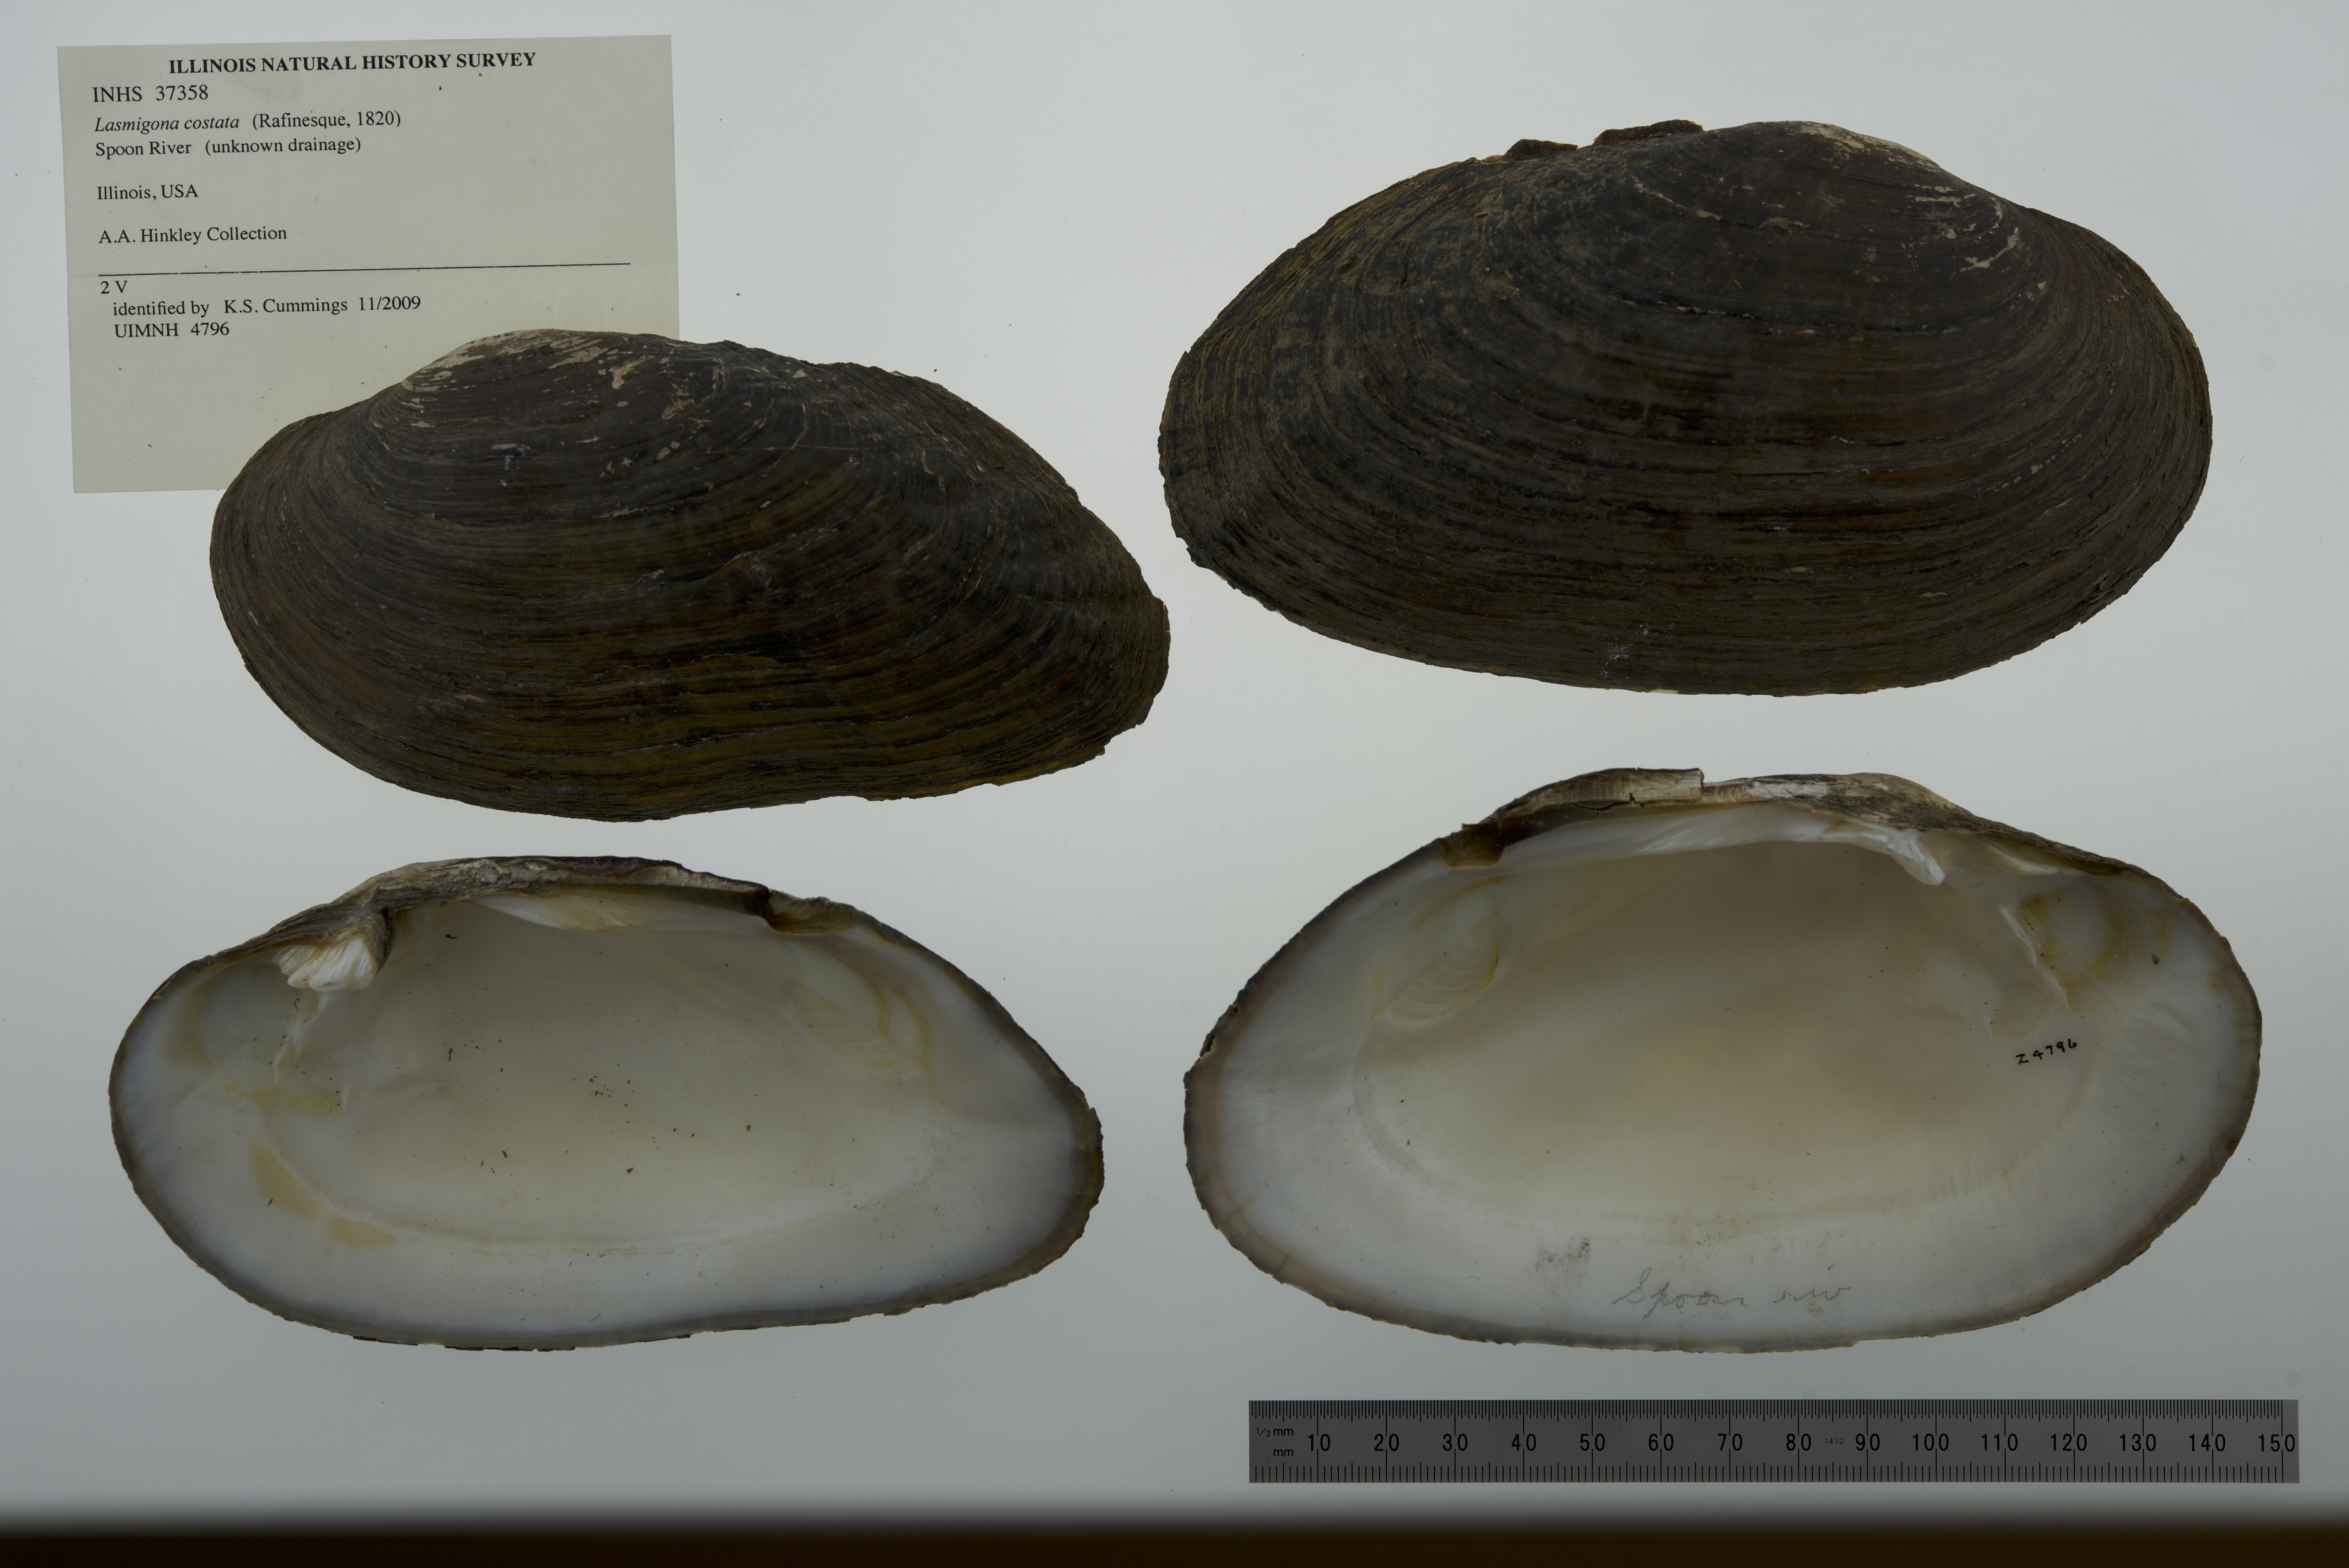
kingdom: Animalia
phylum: Mollusca
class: Bivalvia
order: Unionida
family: Unionidae
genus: Lasmigona
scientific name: Lasmigona costata
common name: Flutedshell
